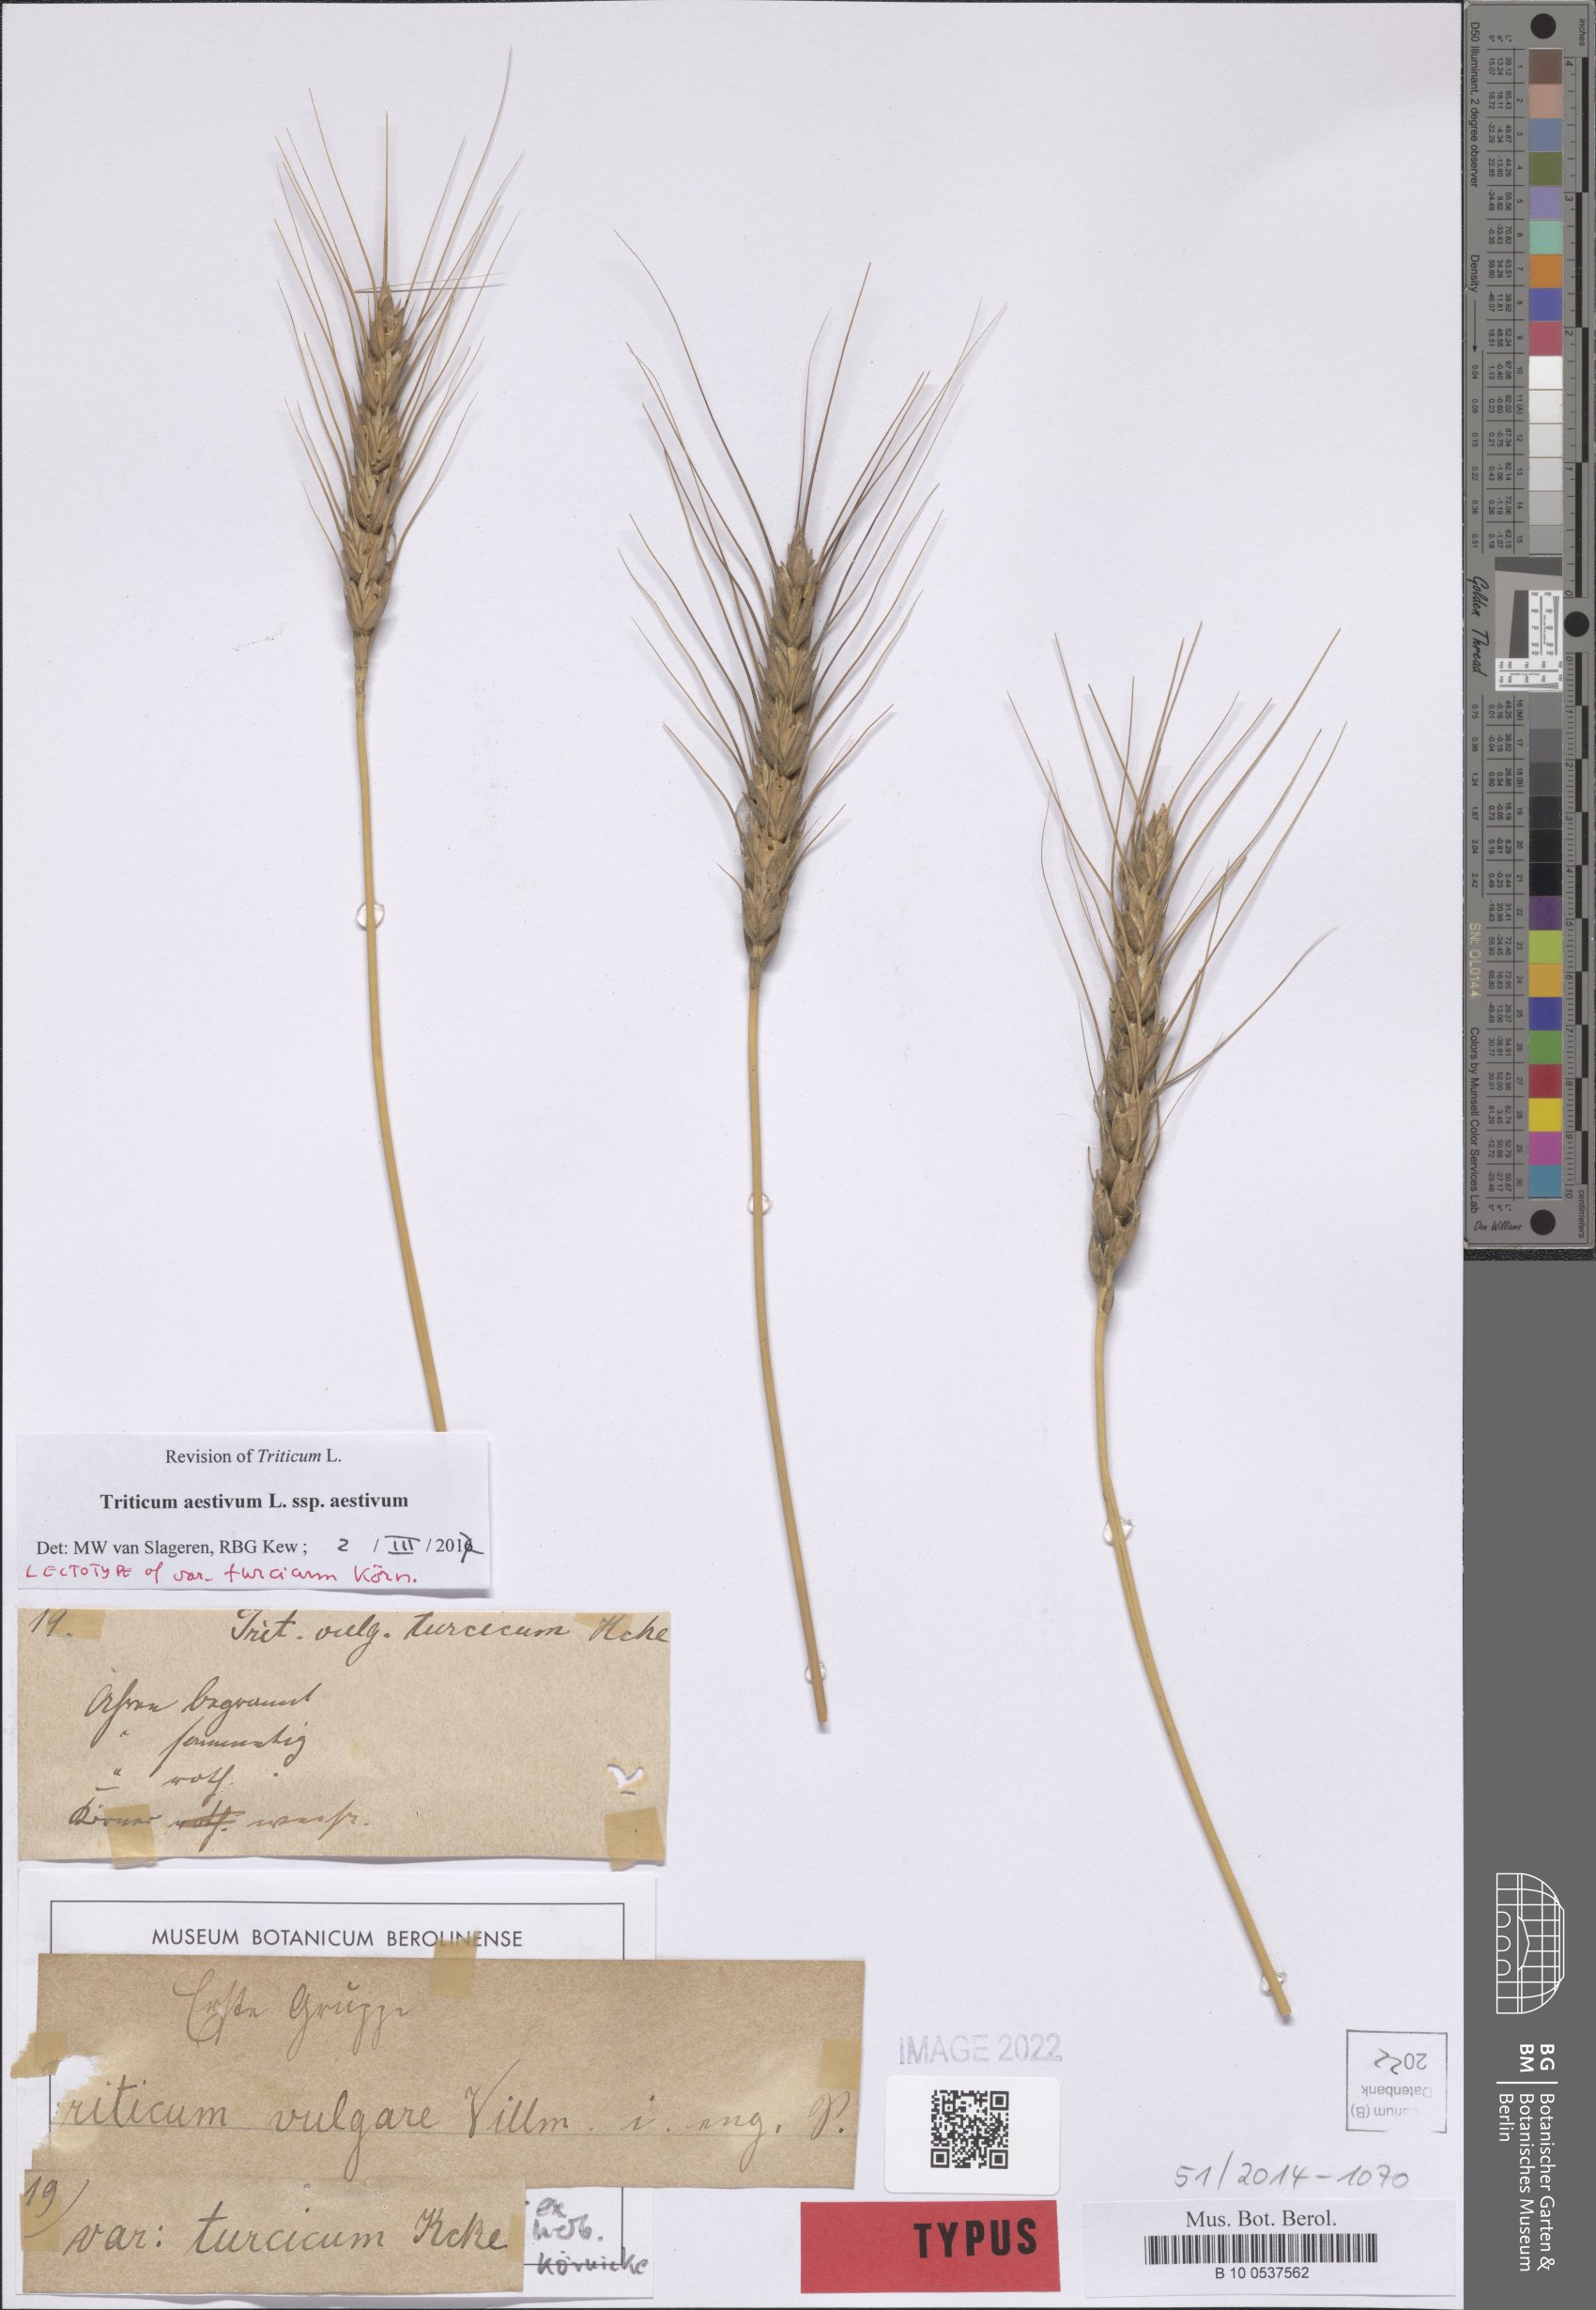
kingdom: Plantae
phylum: Tracheophyta
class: Liliopsida
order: Poales
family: Poaceae
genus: Triticum
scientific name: Triticum aestivum
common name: Common wheat
